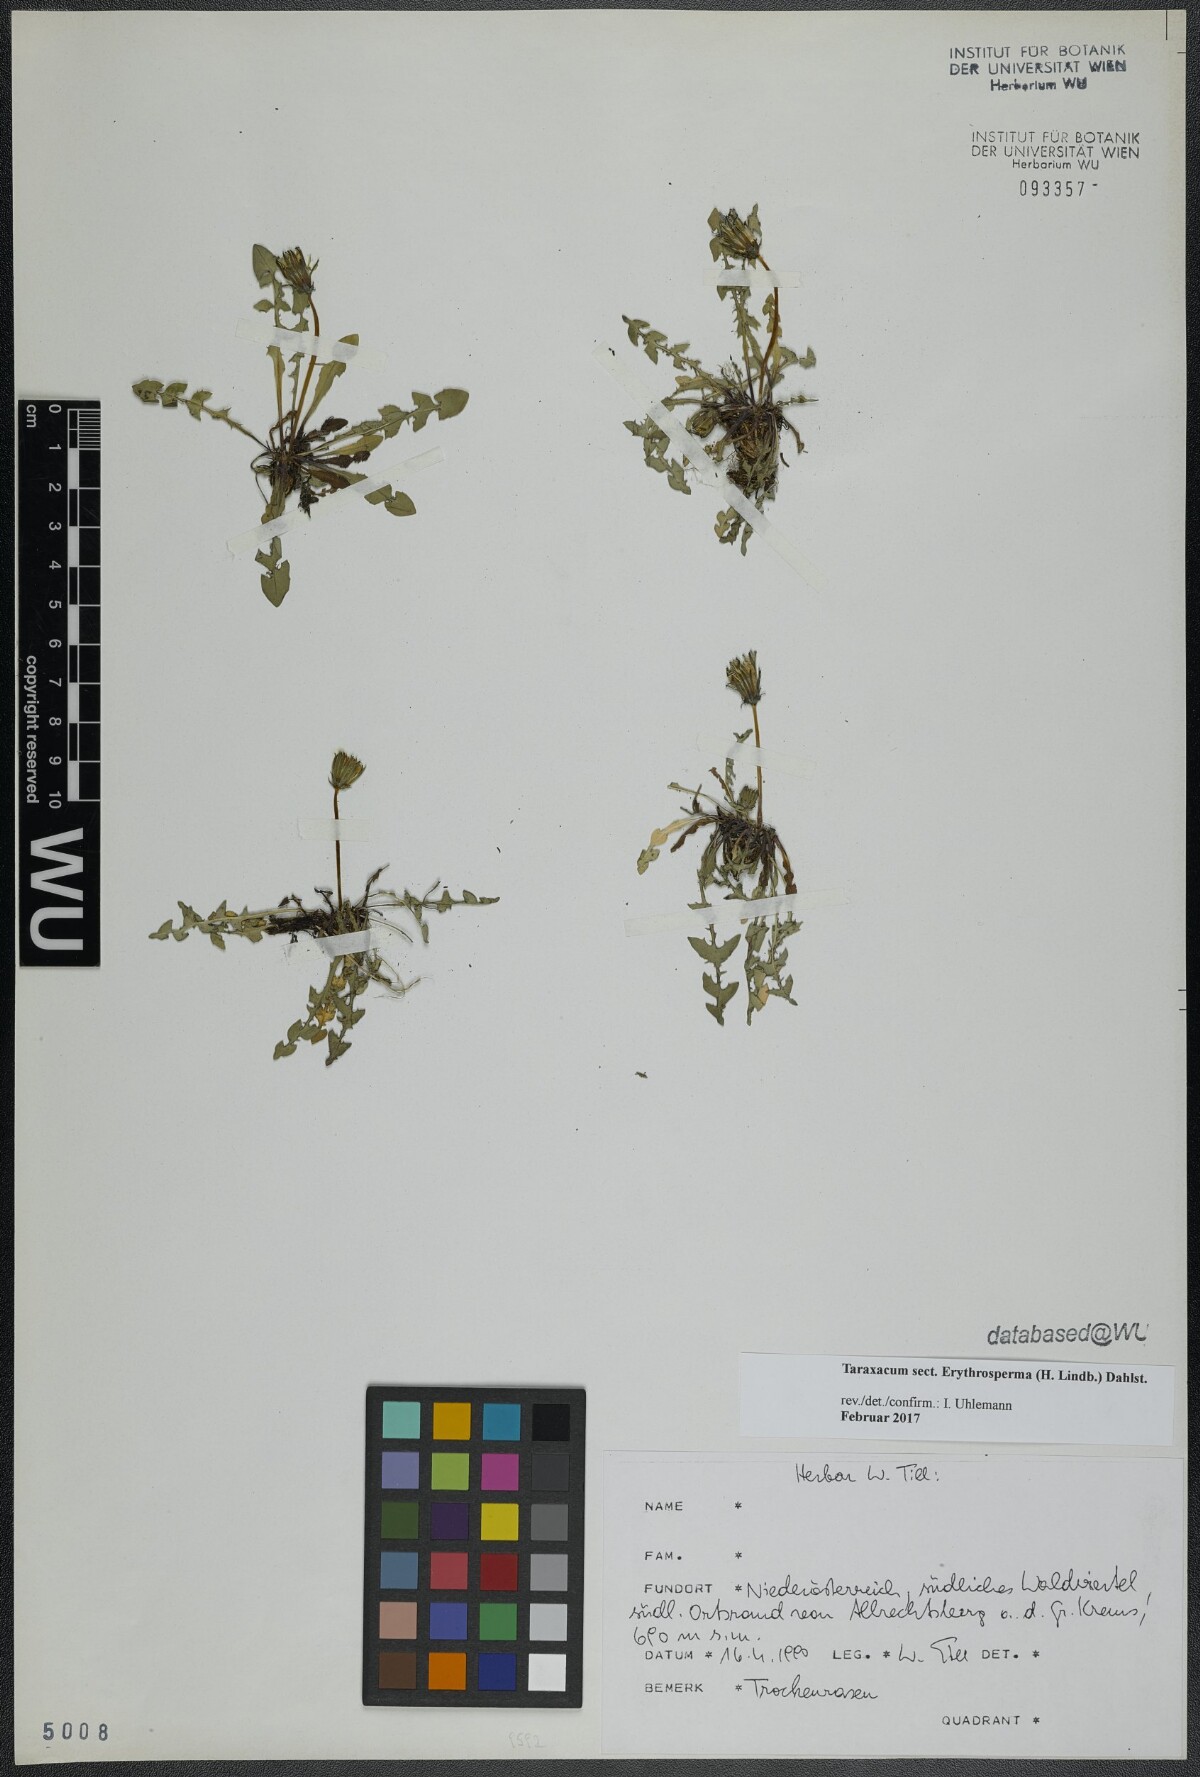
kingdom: Plantae
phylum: Tracheophyta
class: Magnoliopsida
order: Asterales
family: Asteraceae
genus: Taraxacum
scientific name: Taraxacum
